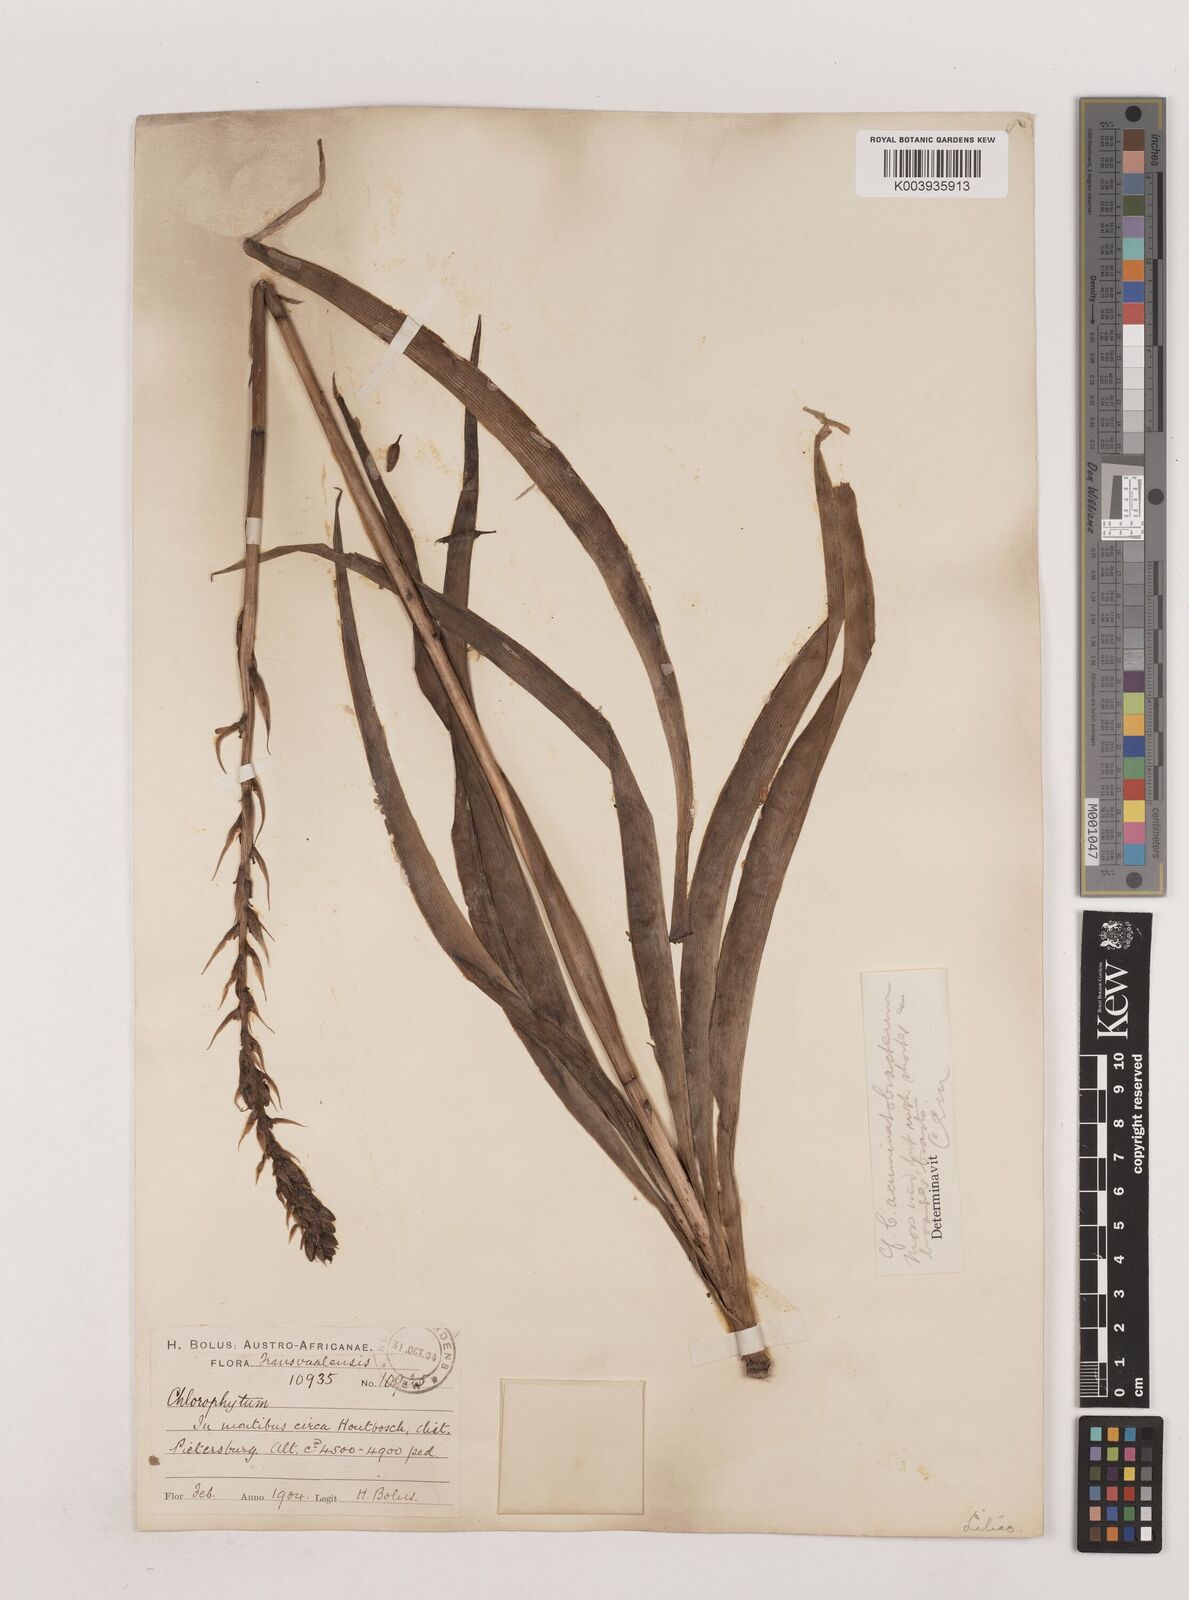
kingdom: Plantae
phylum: Tracheophyta
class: Liliopsida
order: Asparagales
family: Asparagaceae
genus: Chlorophytum
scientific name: Chlorophytum bowkeri
